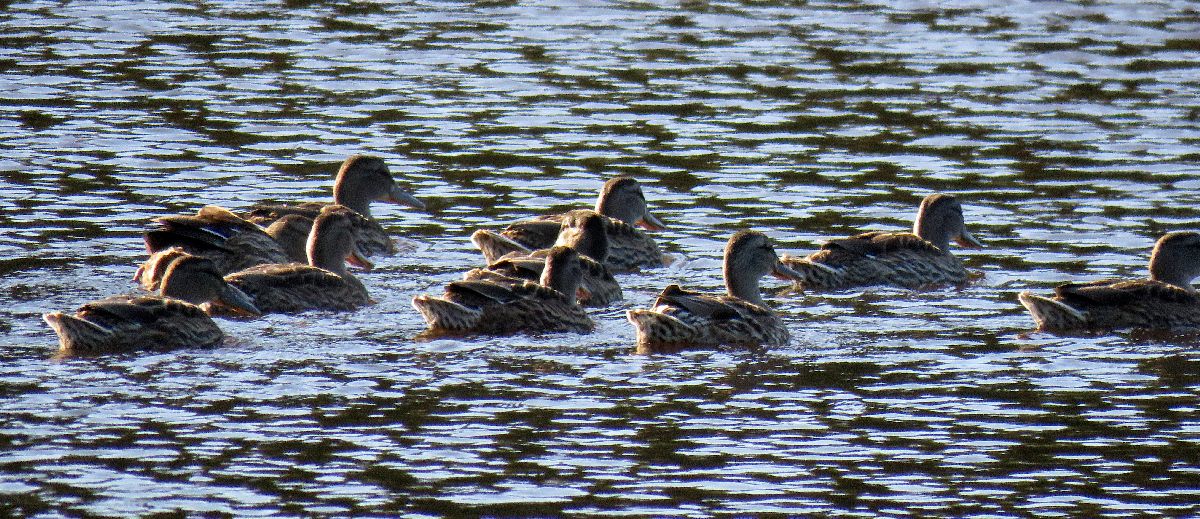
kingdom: Animalia
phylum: Chordata
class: Aves
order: Anseriformes
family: Anatidae
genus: Anas
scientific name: Anas platyrhynchos
